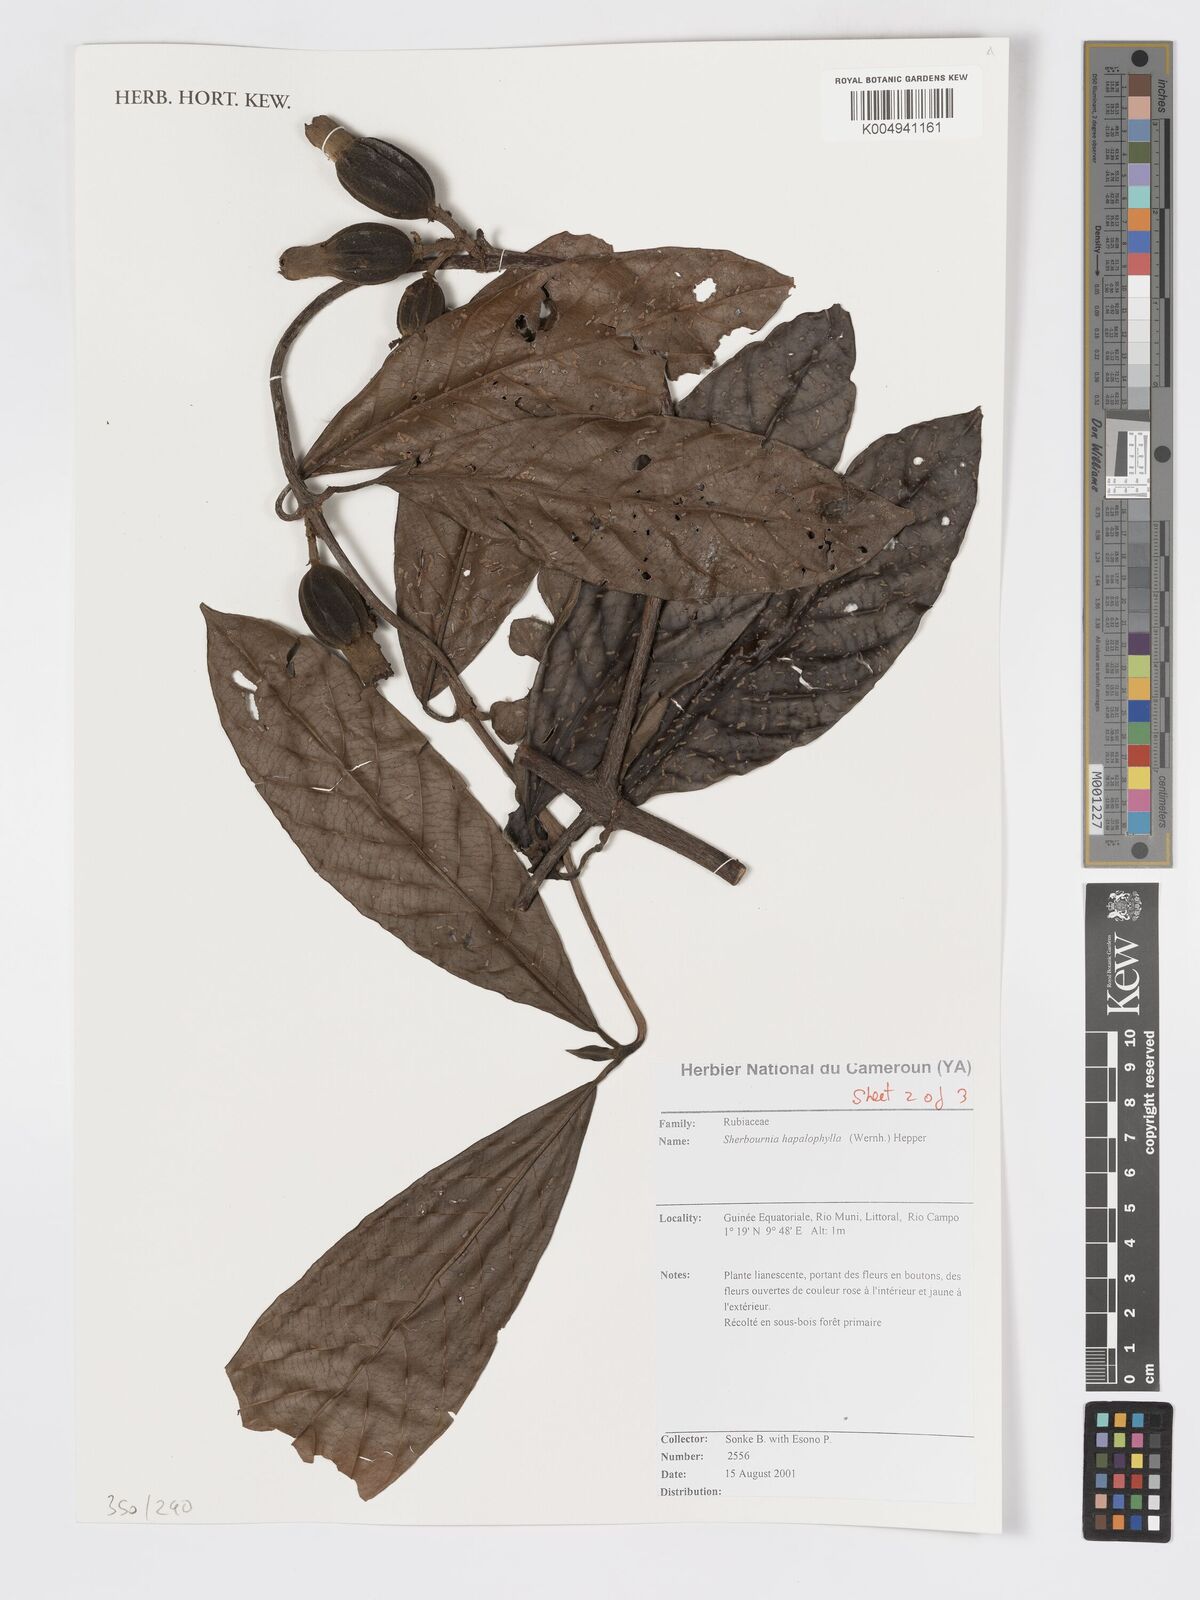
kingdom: Plantae
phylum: Tracheophyta
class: Magnoliopsida
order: Gentianales
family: Rubiaceae
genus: Sherbournia
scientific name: Sherbournia hapalophylla
